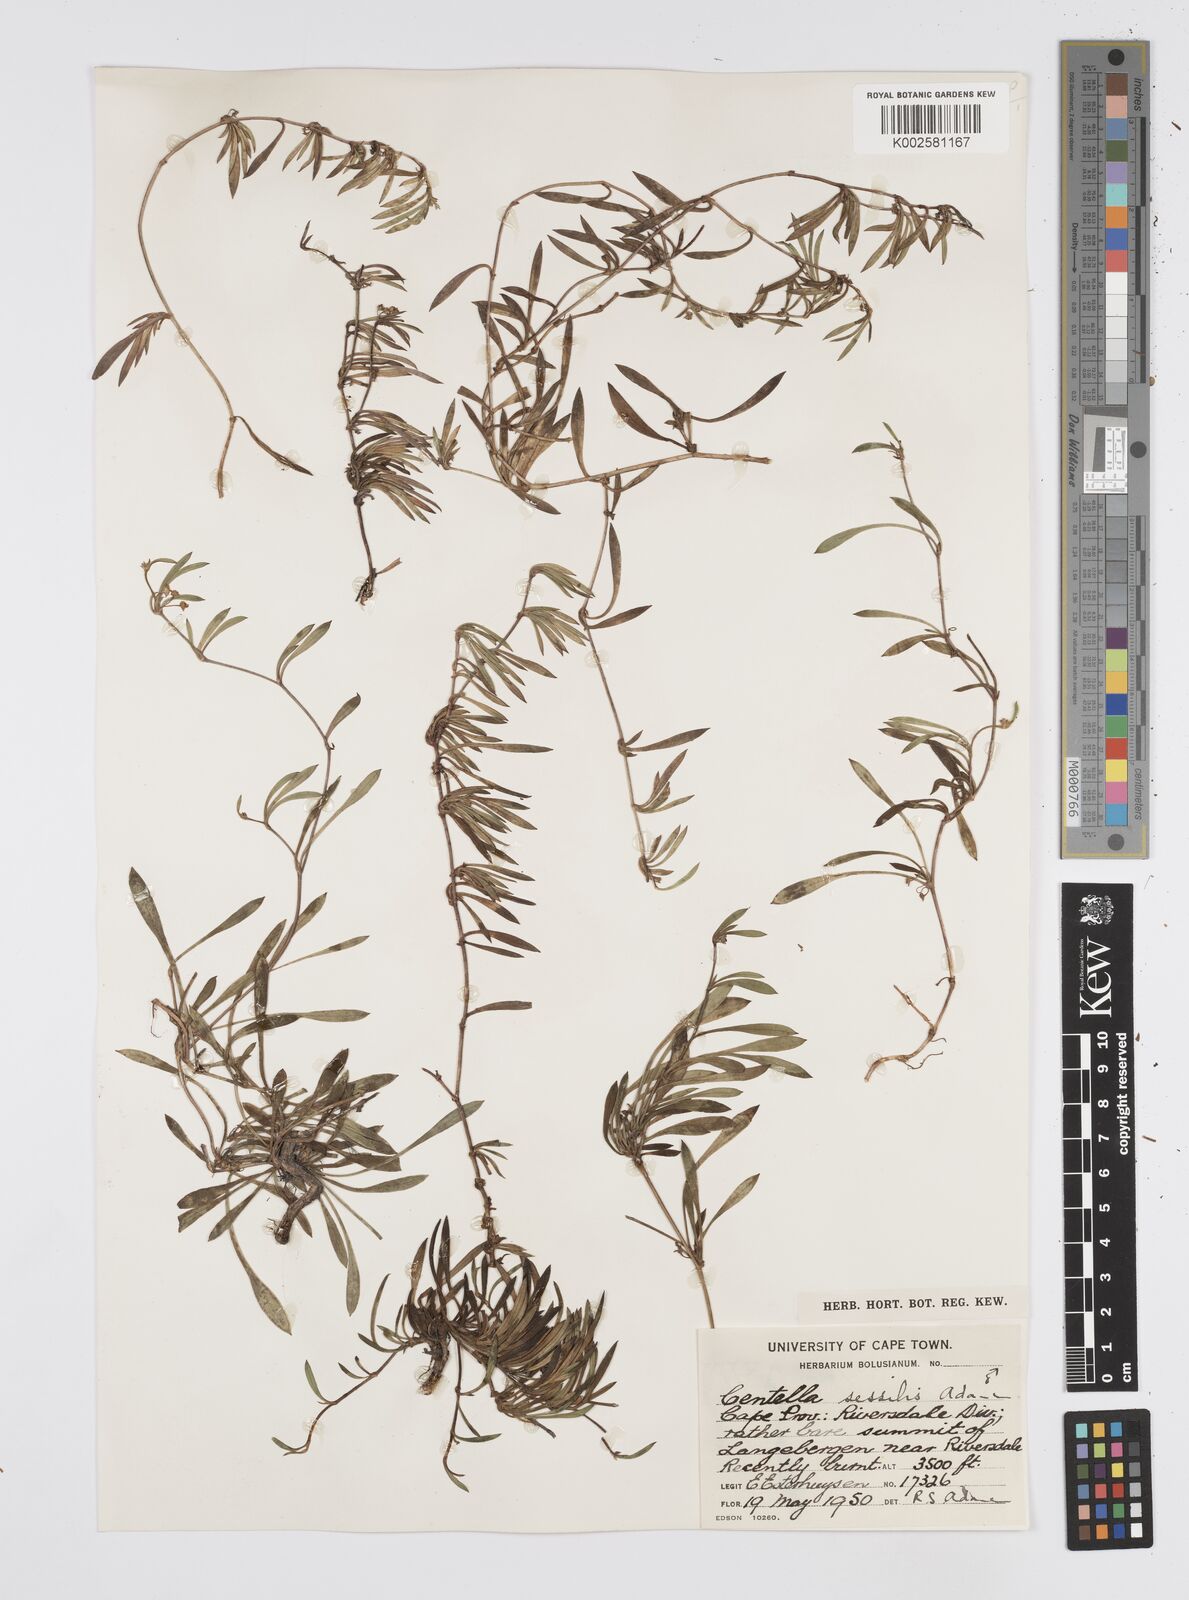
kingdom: Plantae
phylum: Tracheophyta
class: Magnoliopsida
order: Apiales
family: Apiaceae
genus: Centella
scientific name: Centella sessilis
